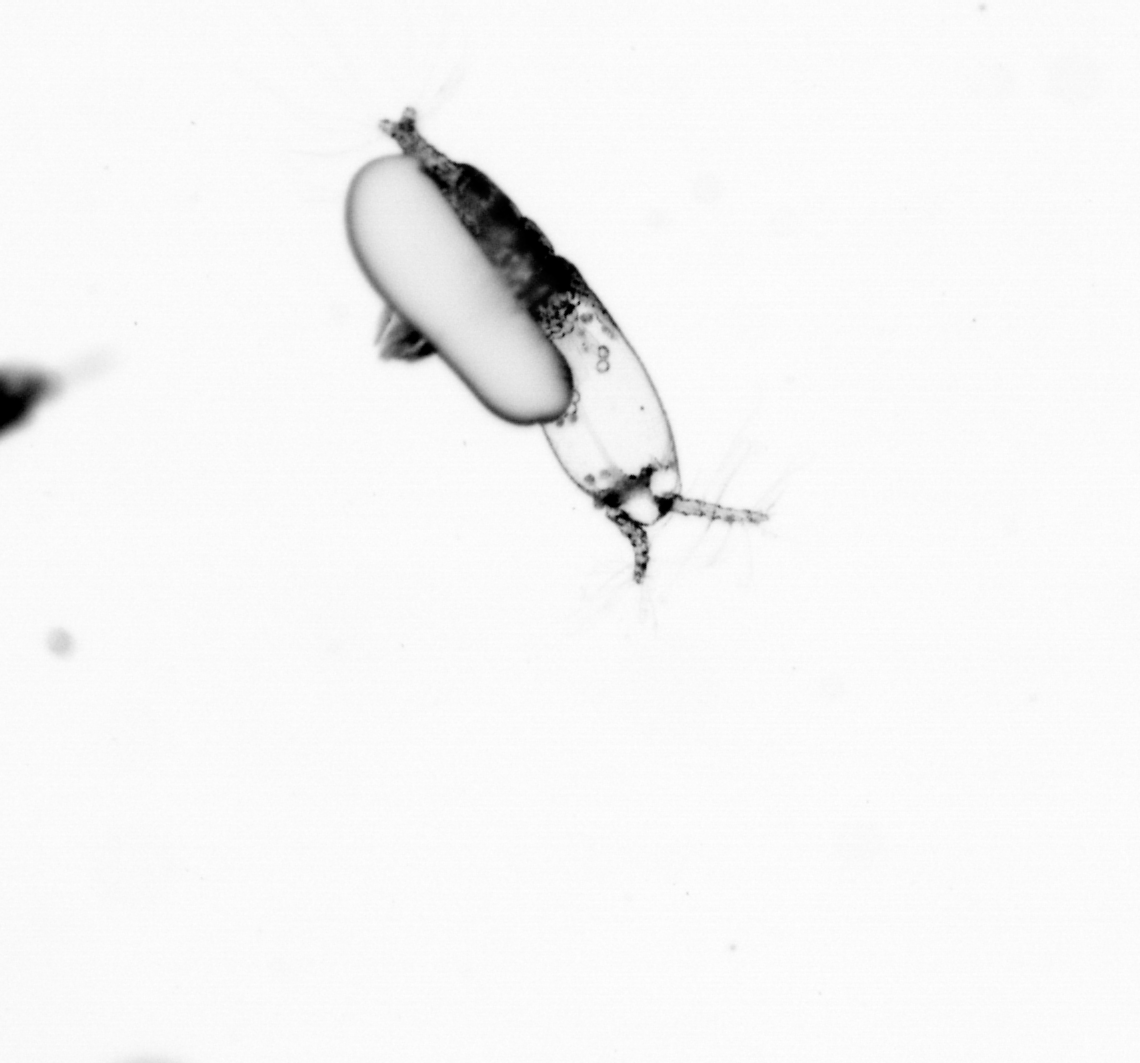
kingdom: Animalia
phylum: Arthropoda
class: Copepoda
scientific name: Copepoda
